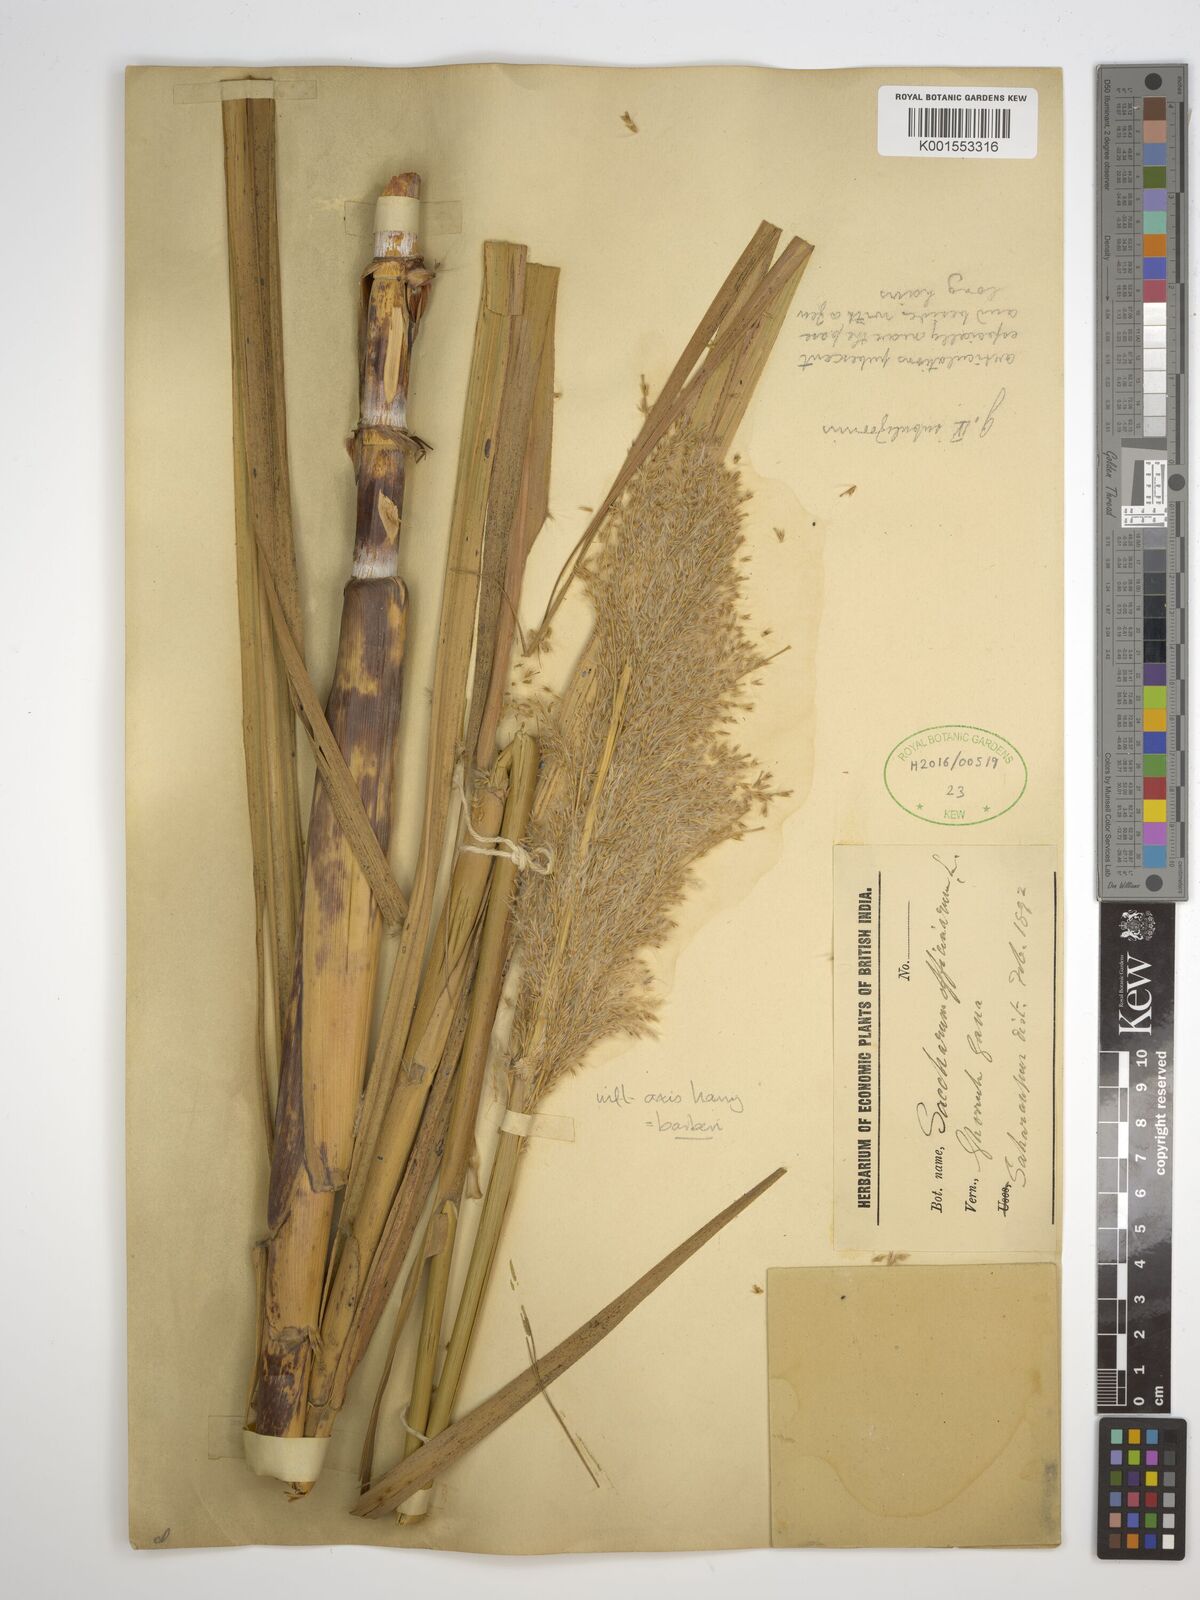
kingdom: Plantae
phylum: Tracheophyta
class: Liliopsida
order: Poales
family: Poaceae
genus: Saccharum
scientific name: Saccharum officinarum
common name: Sugarcane
